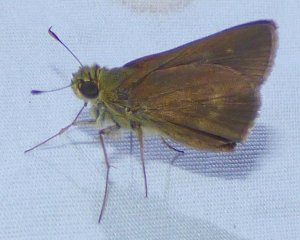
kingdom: Animalia
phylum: Arthropoda
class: Insecta
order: Lepidoptera
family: Hesperiidae
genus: Polites
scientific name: Polites egeremet
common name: Northern Broken-Dash
